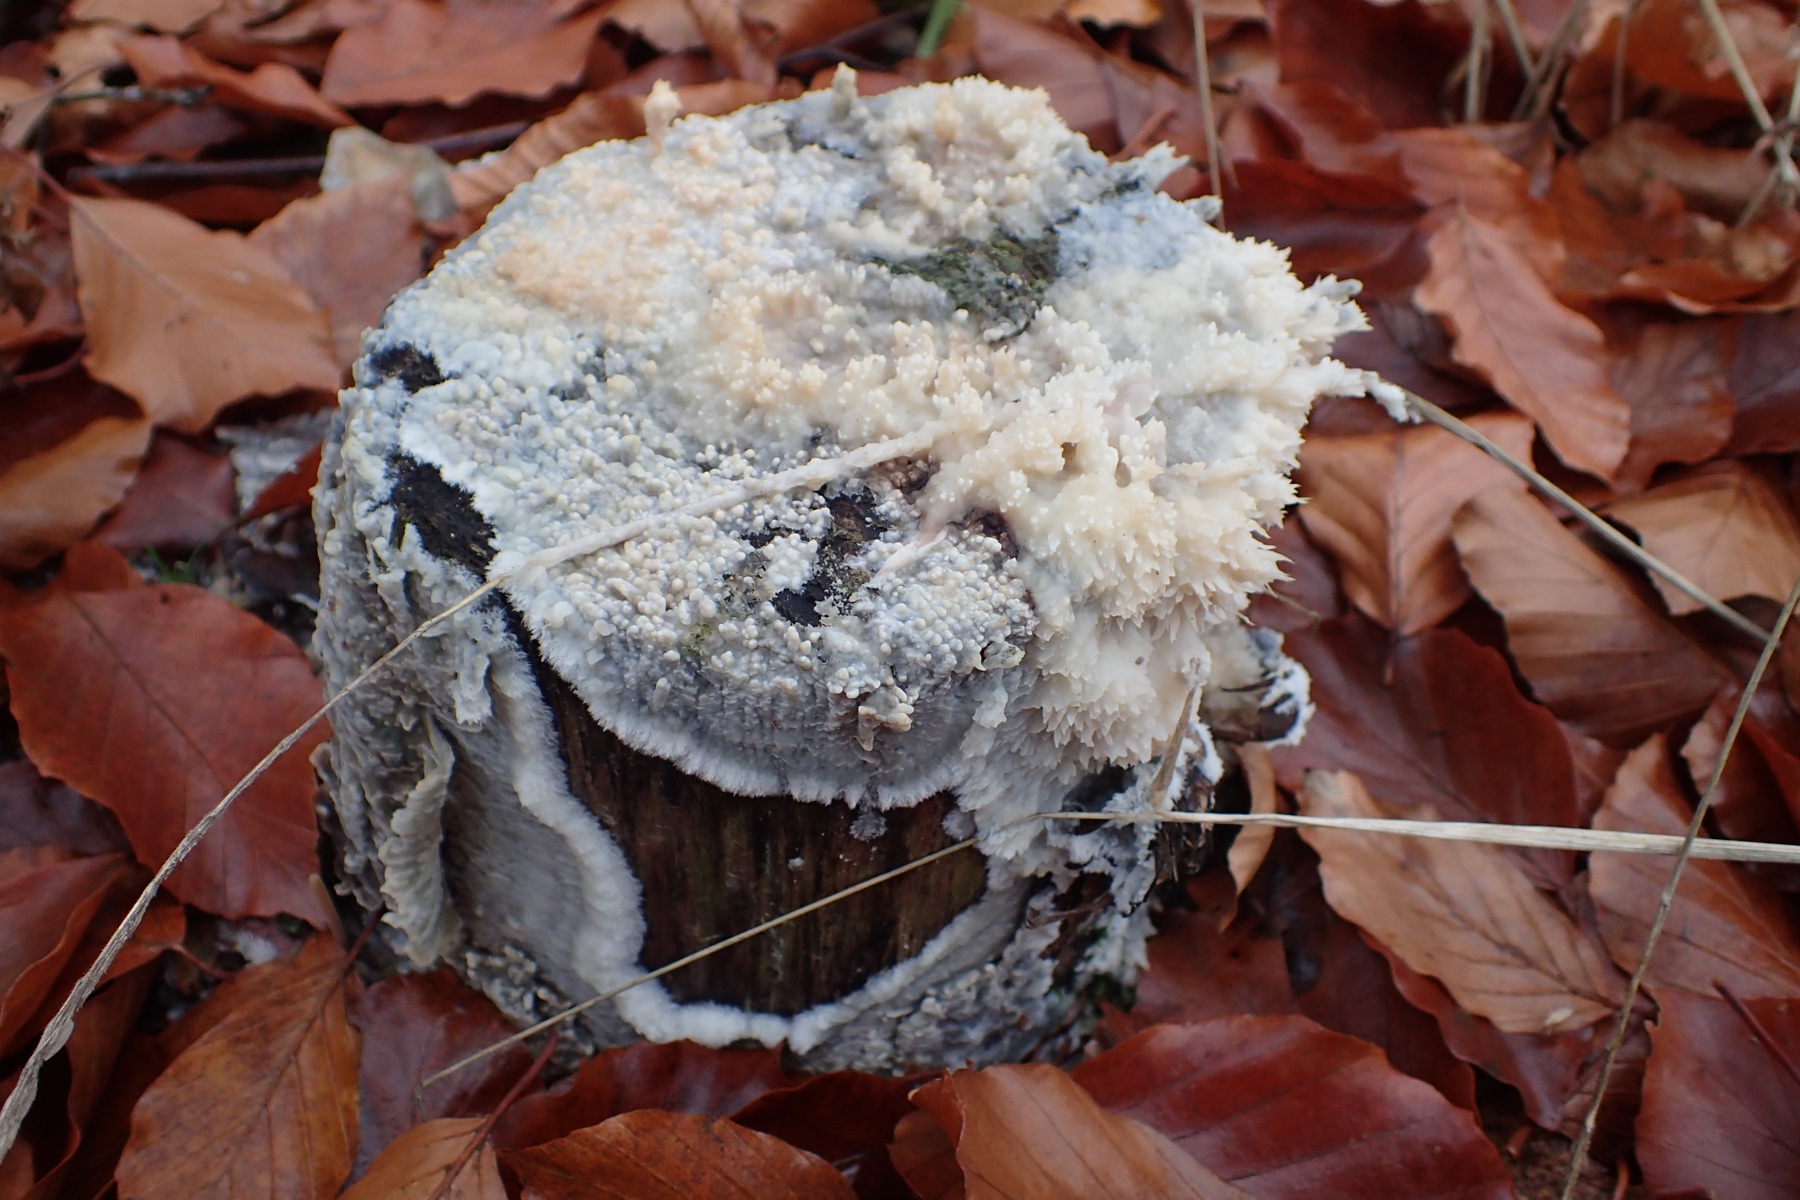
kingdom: Fungi
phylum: Basidiomycota
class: Agaricomycetes
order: Corticiales
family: Corticiaceae
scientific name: Corticiaceae
